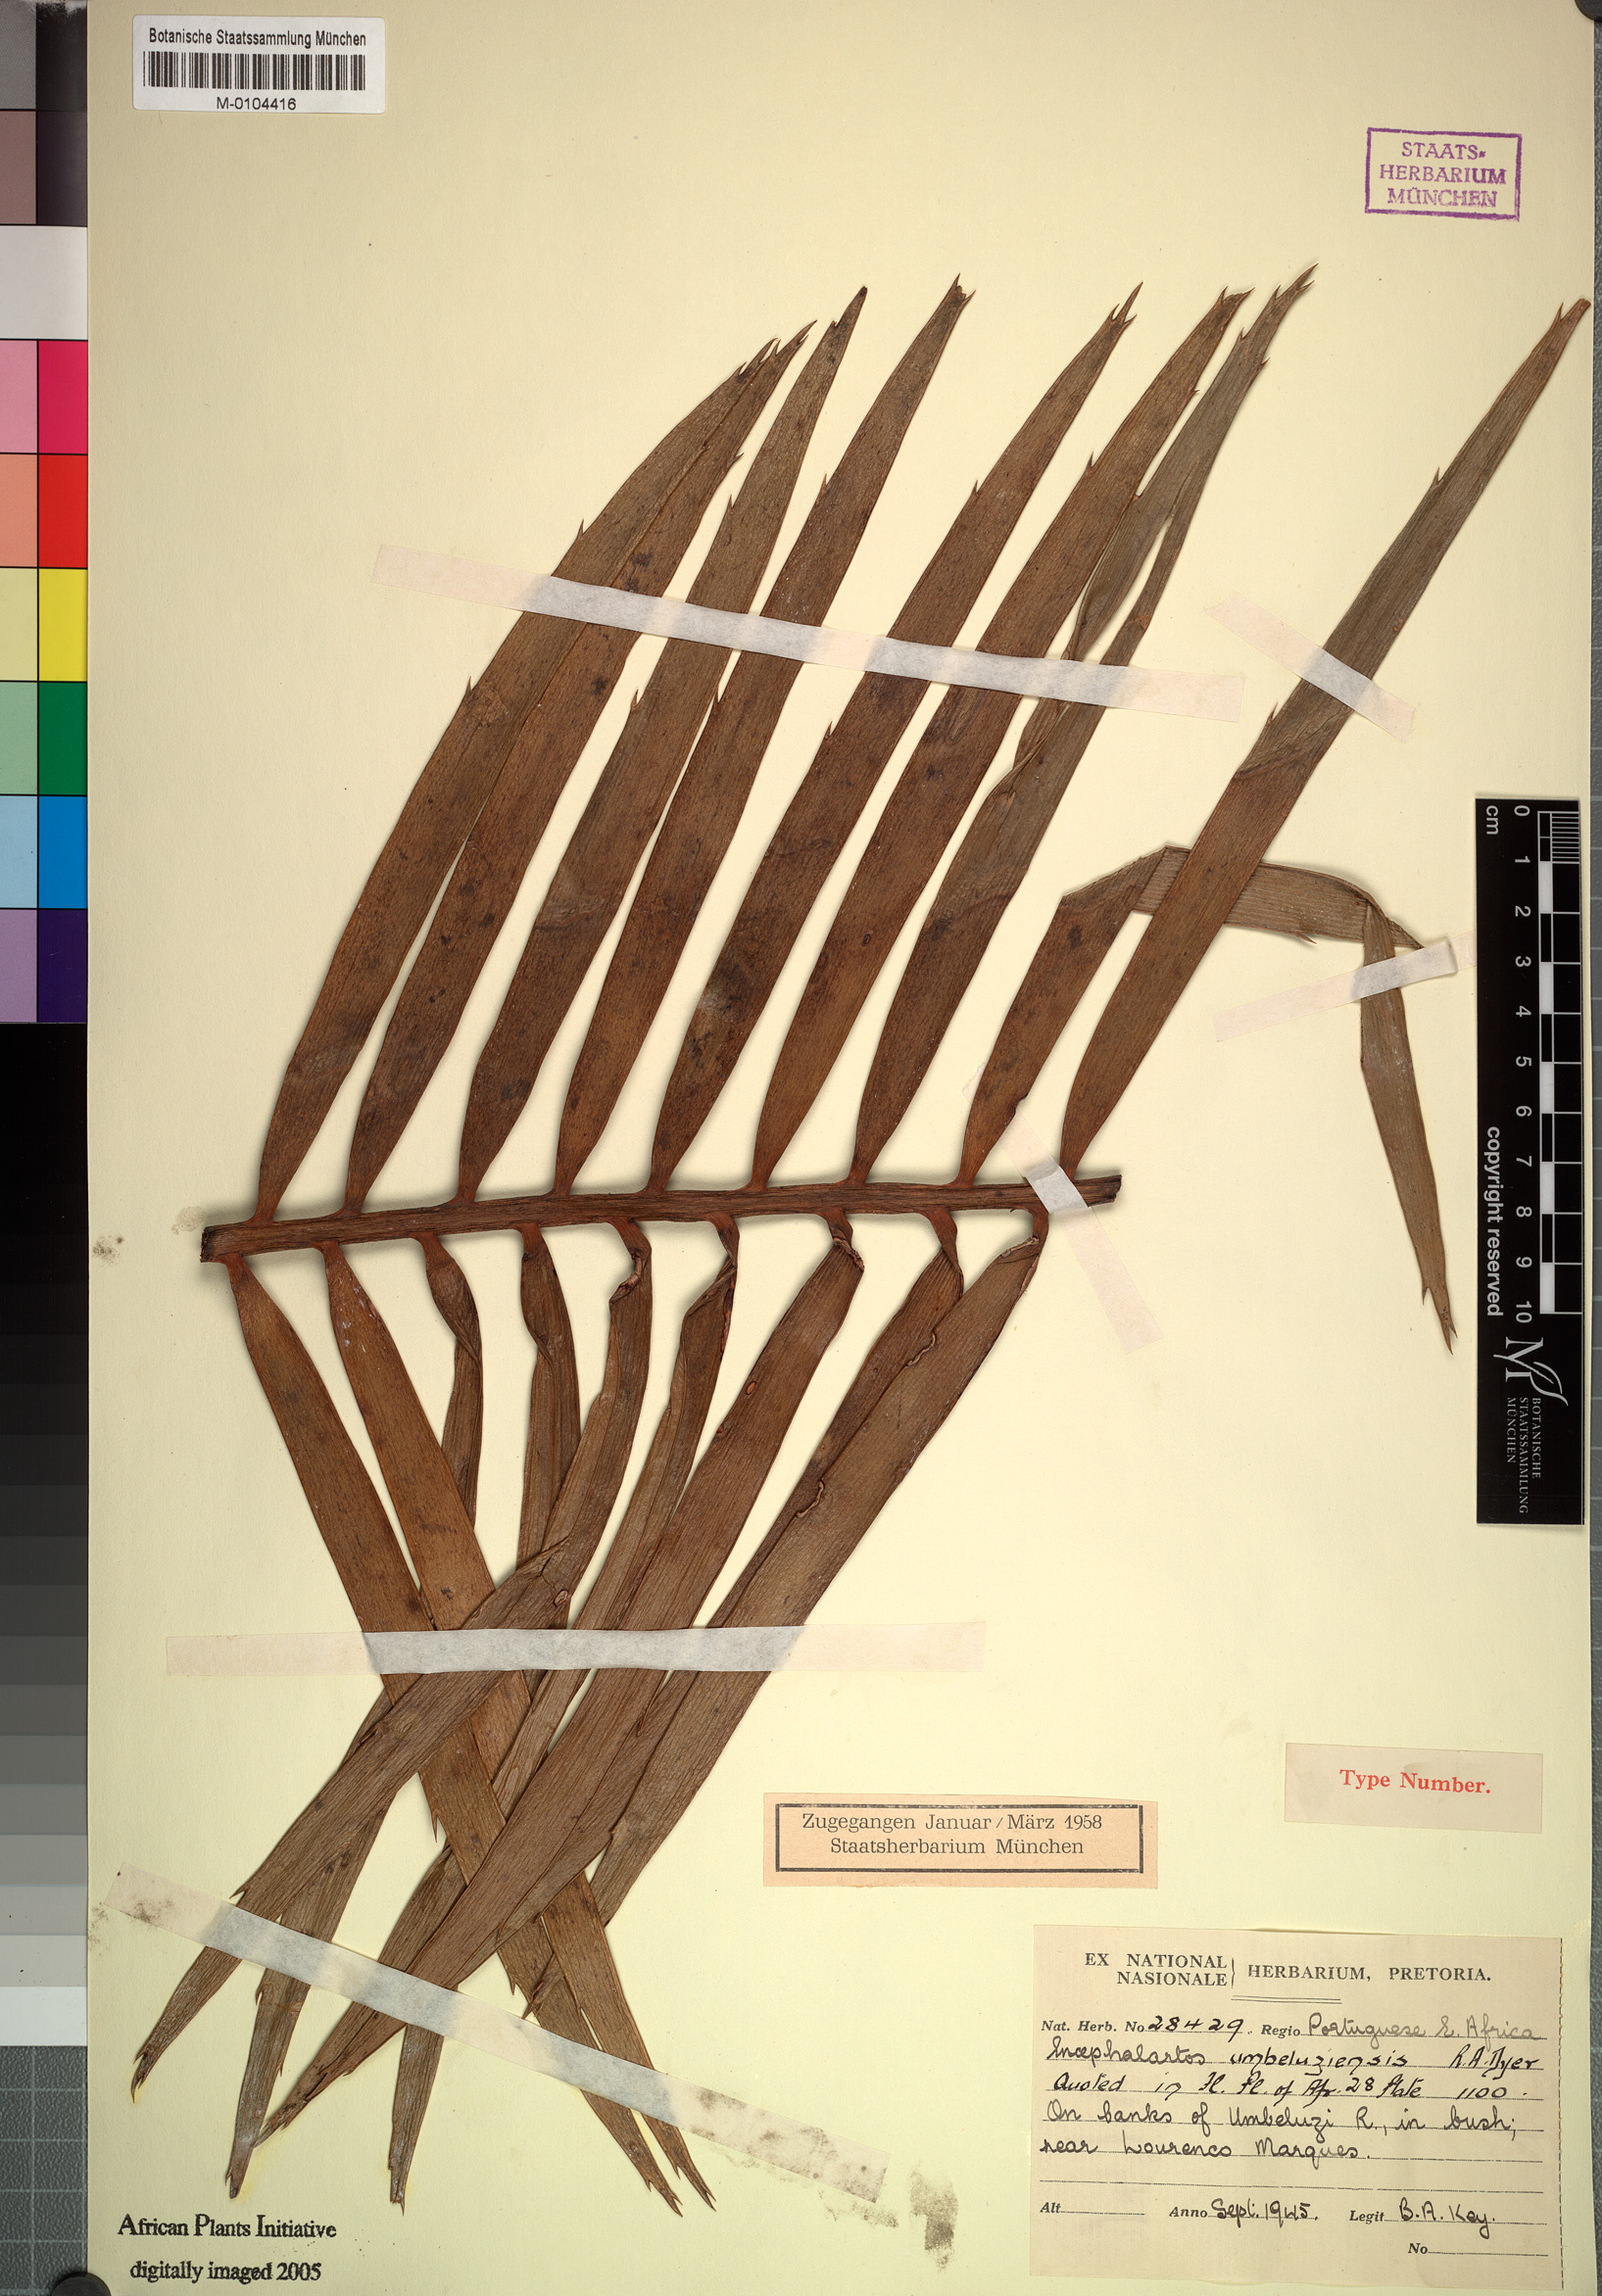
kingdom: Plantae
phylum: Tracheophyta
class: Cycadopsida
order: Cycadales
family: Zamiaceae
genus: Encephalartos
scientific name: Encephalartos umbeluziensis
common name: Umbeluzi cycad
